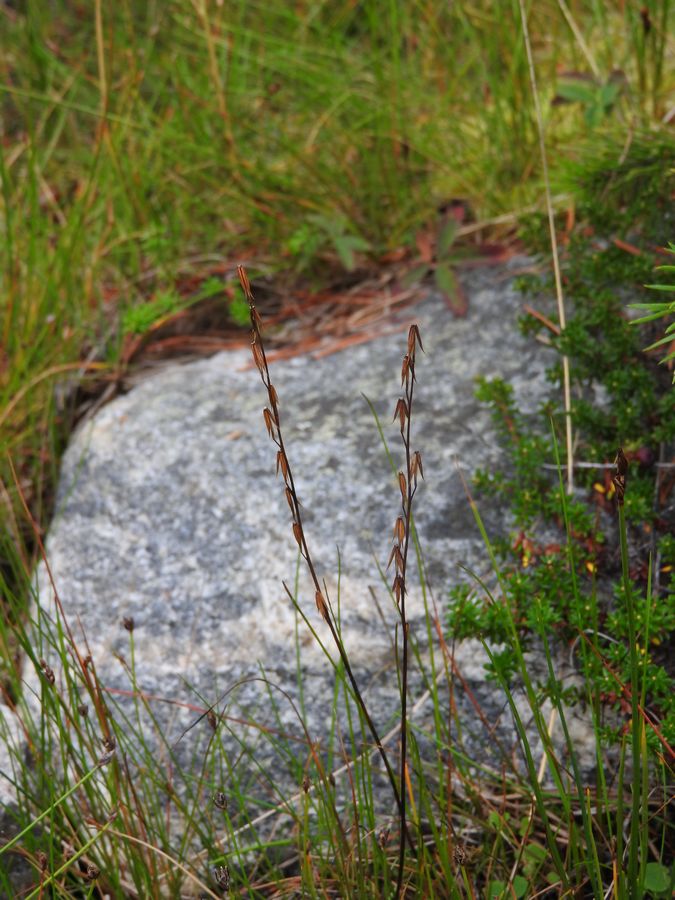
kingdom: Plantae
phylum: Tracheophyta
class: Liliopsida
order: Alismatales
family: Juncaginaceae
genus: Triglochin
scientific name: Triglochin palustris
